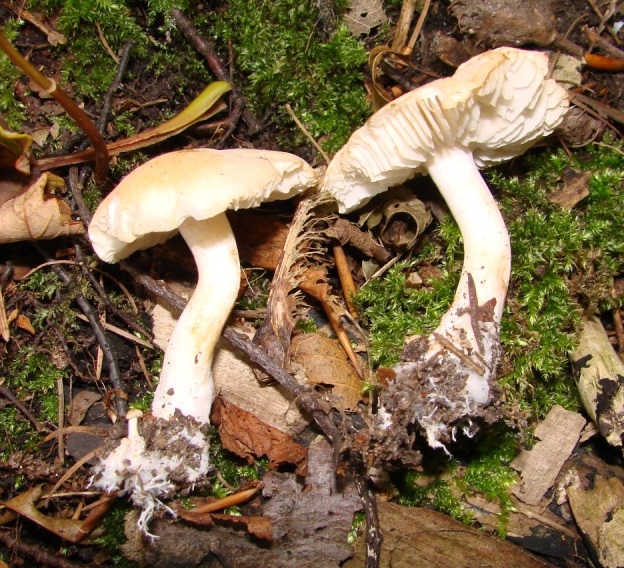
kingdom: Fungi
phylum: Basidiomycota
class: Agaricomycetes
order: Agaricales
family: Tricholomataceae
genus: Tricholoma
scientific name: Tricholoma lascivum
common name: stinkende ridderhat
